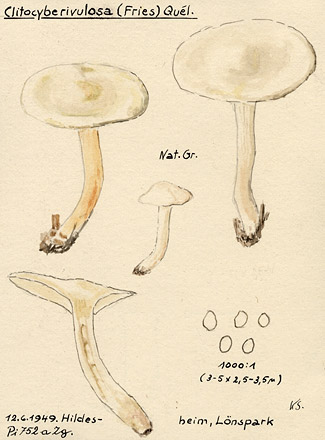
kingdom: Fungi
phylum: Basidiomycota
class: Agaricomycetes
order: Agaricales
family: Tricholomataceae
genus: Clitocybe
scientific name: Clitocybe rivulosa
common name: Cracking clitocybe
